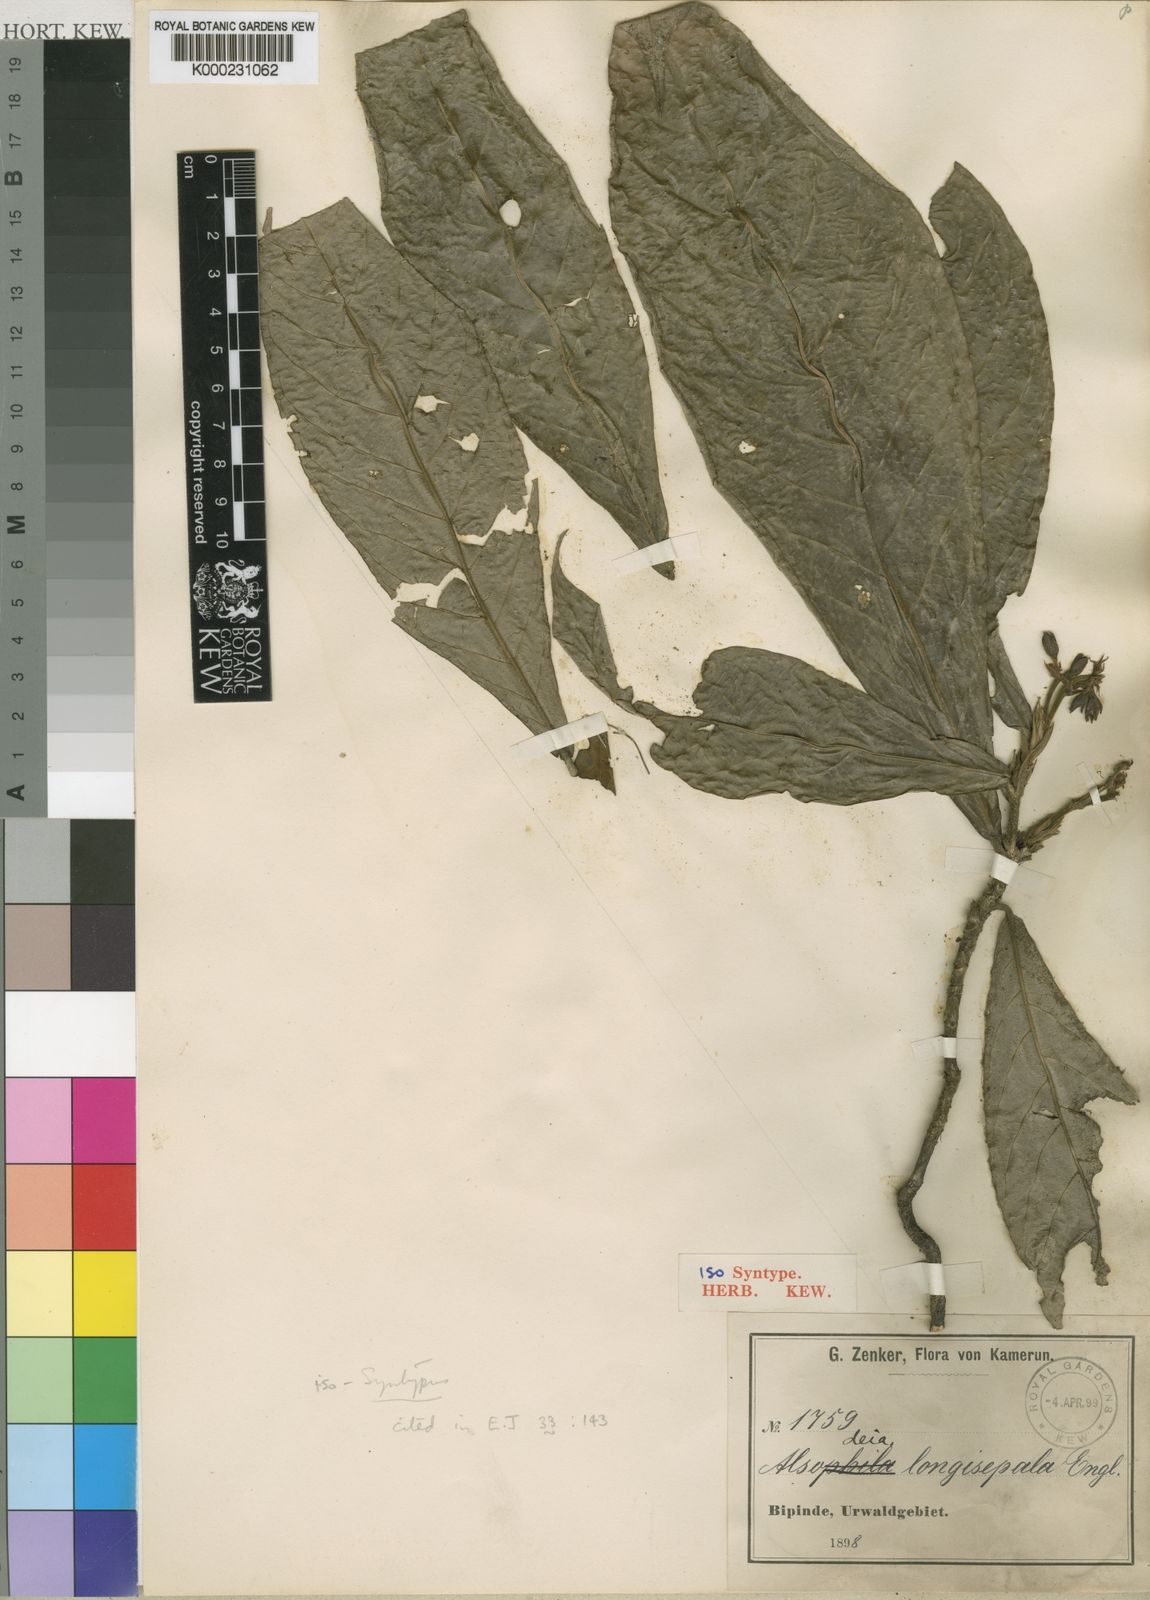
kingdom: Plantae
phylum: Tracheophyta
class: Magnoliopsida
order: Malpighiales
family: Violaceae
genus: Rinorea
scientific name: Rinorea longisepala
